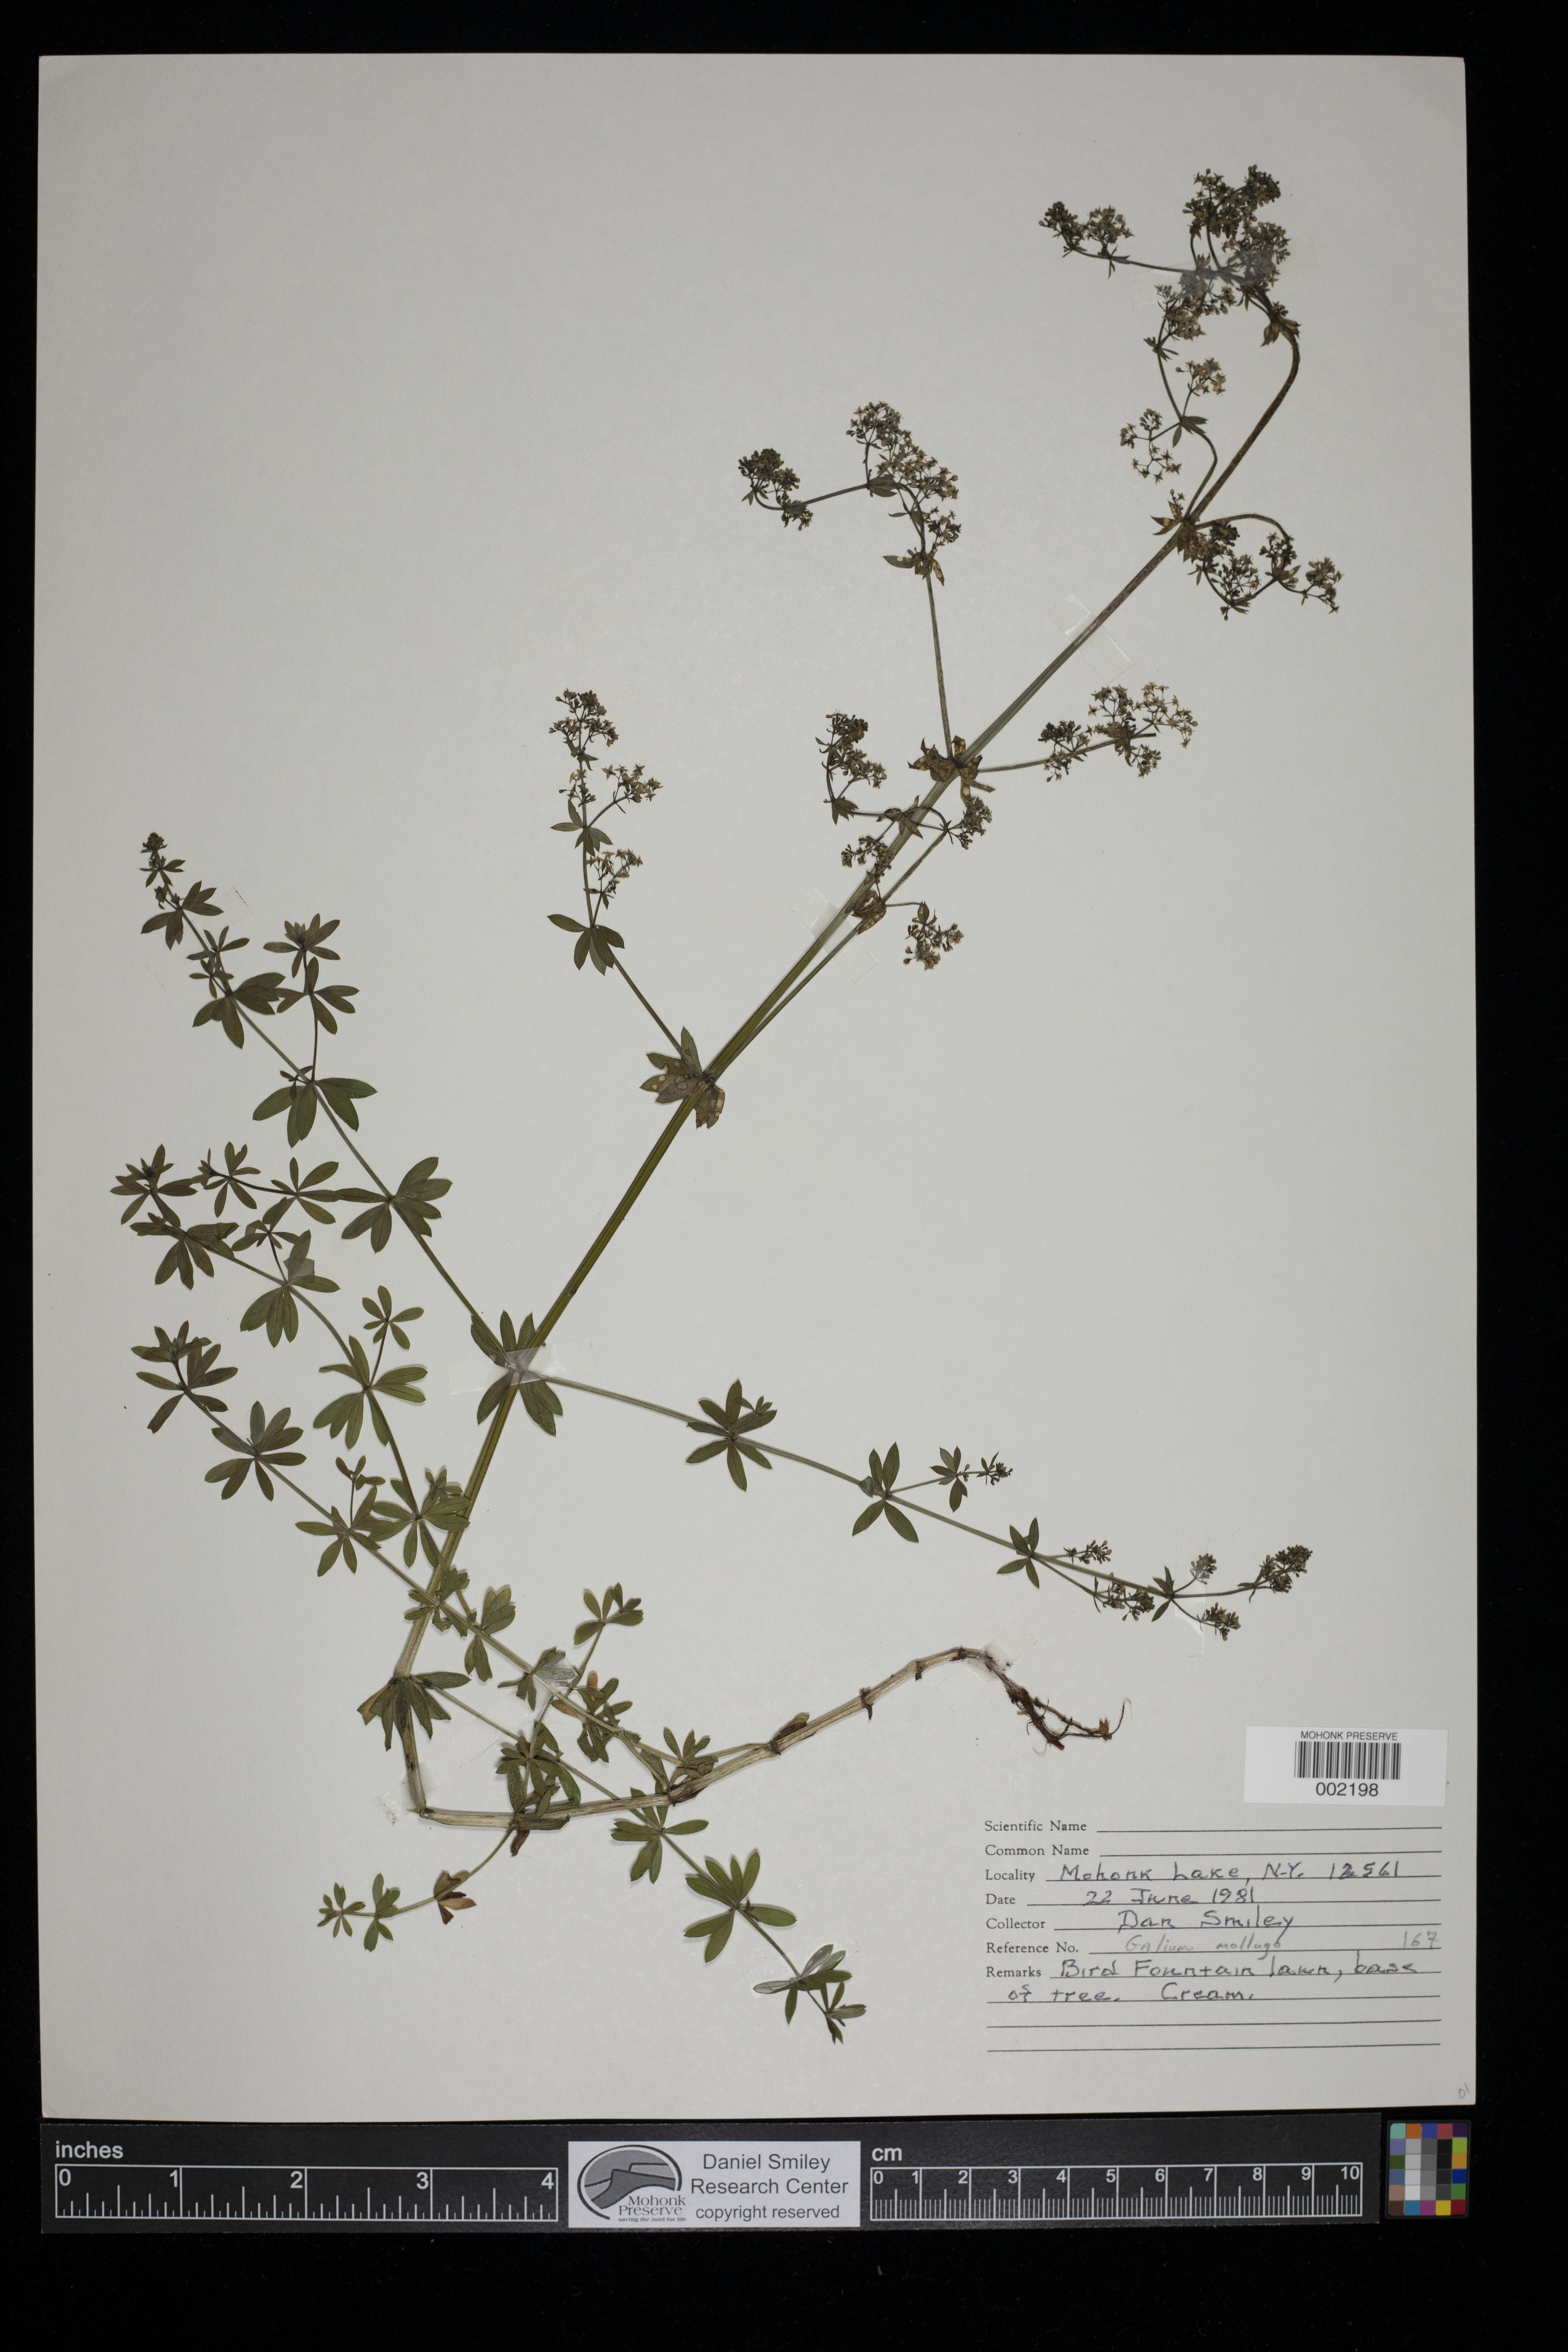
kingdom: Plantae
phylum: Tracheophyta
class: Magnoliopsida
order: Gentianales
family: Rubiaceae
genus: Galium
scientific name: Galium mollugo
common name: Hedge bedstraw
